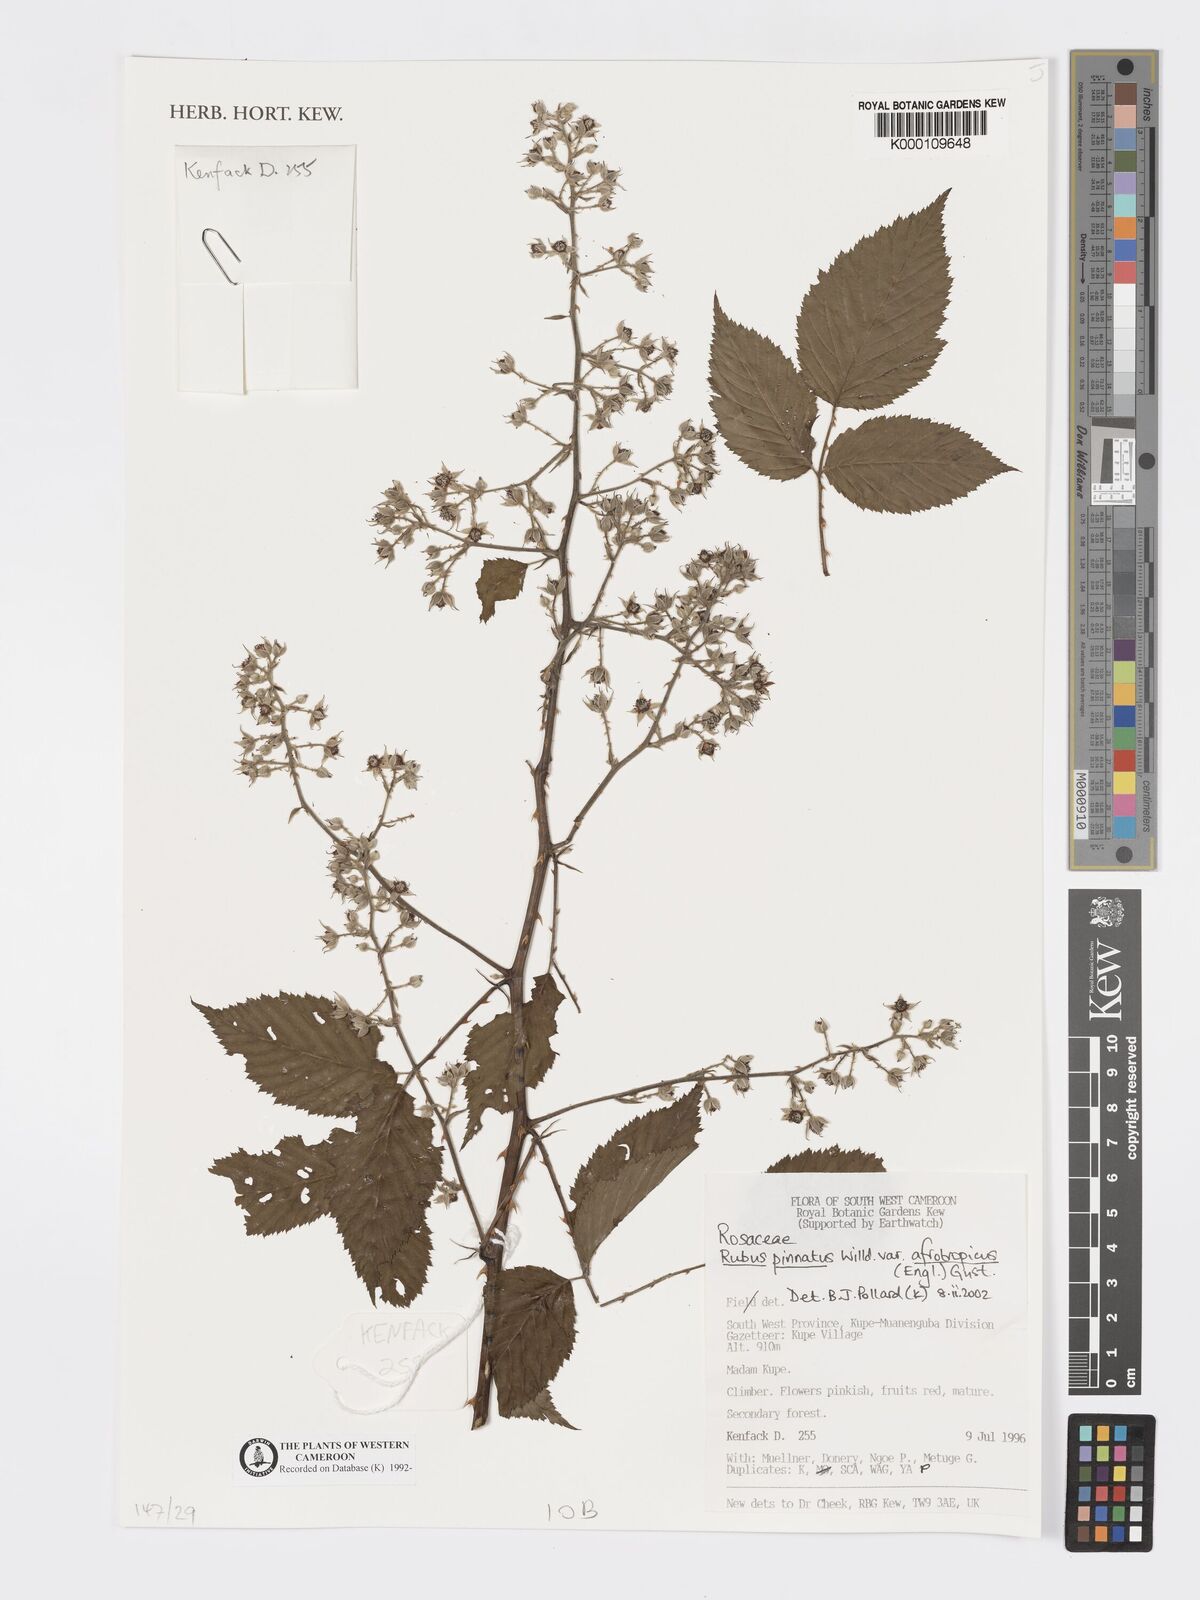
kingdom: Plantae
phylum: Tracheophyta
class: Magnoliopsida
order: Rosales
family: Rosaceae
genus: Rubus
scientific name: Rubus pinnatus
